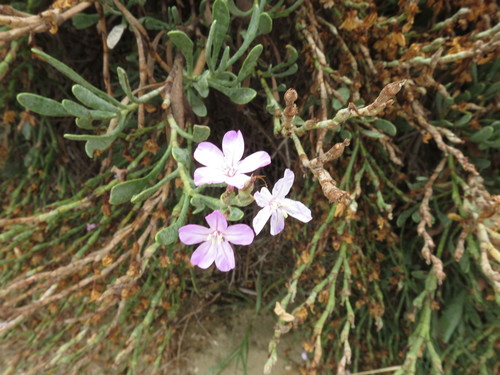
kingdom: Plantae
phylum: Tracheophyta
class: Magnoliopsida
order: Caryophyllales
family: Plumbaginaceae
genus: Limoniastrum
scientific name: Limoniastrum monopetalum
